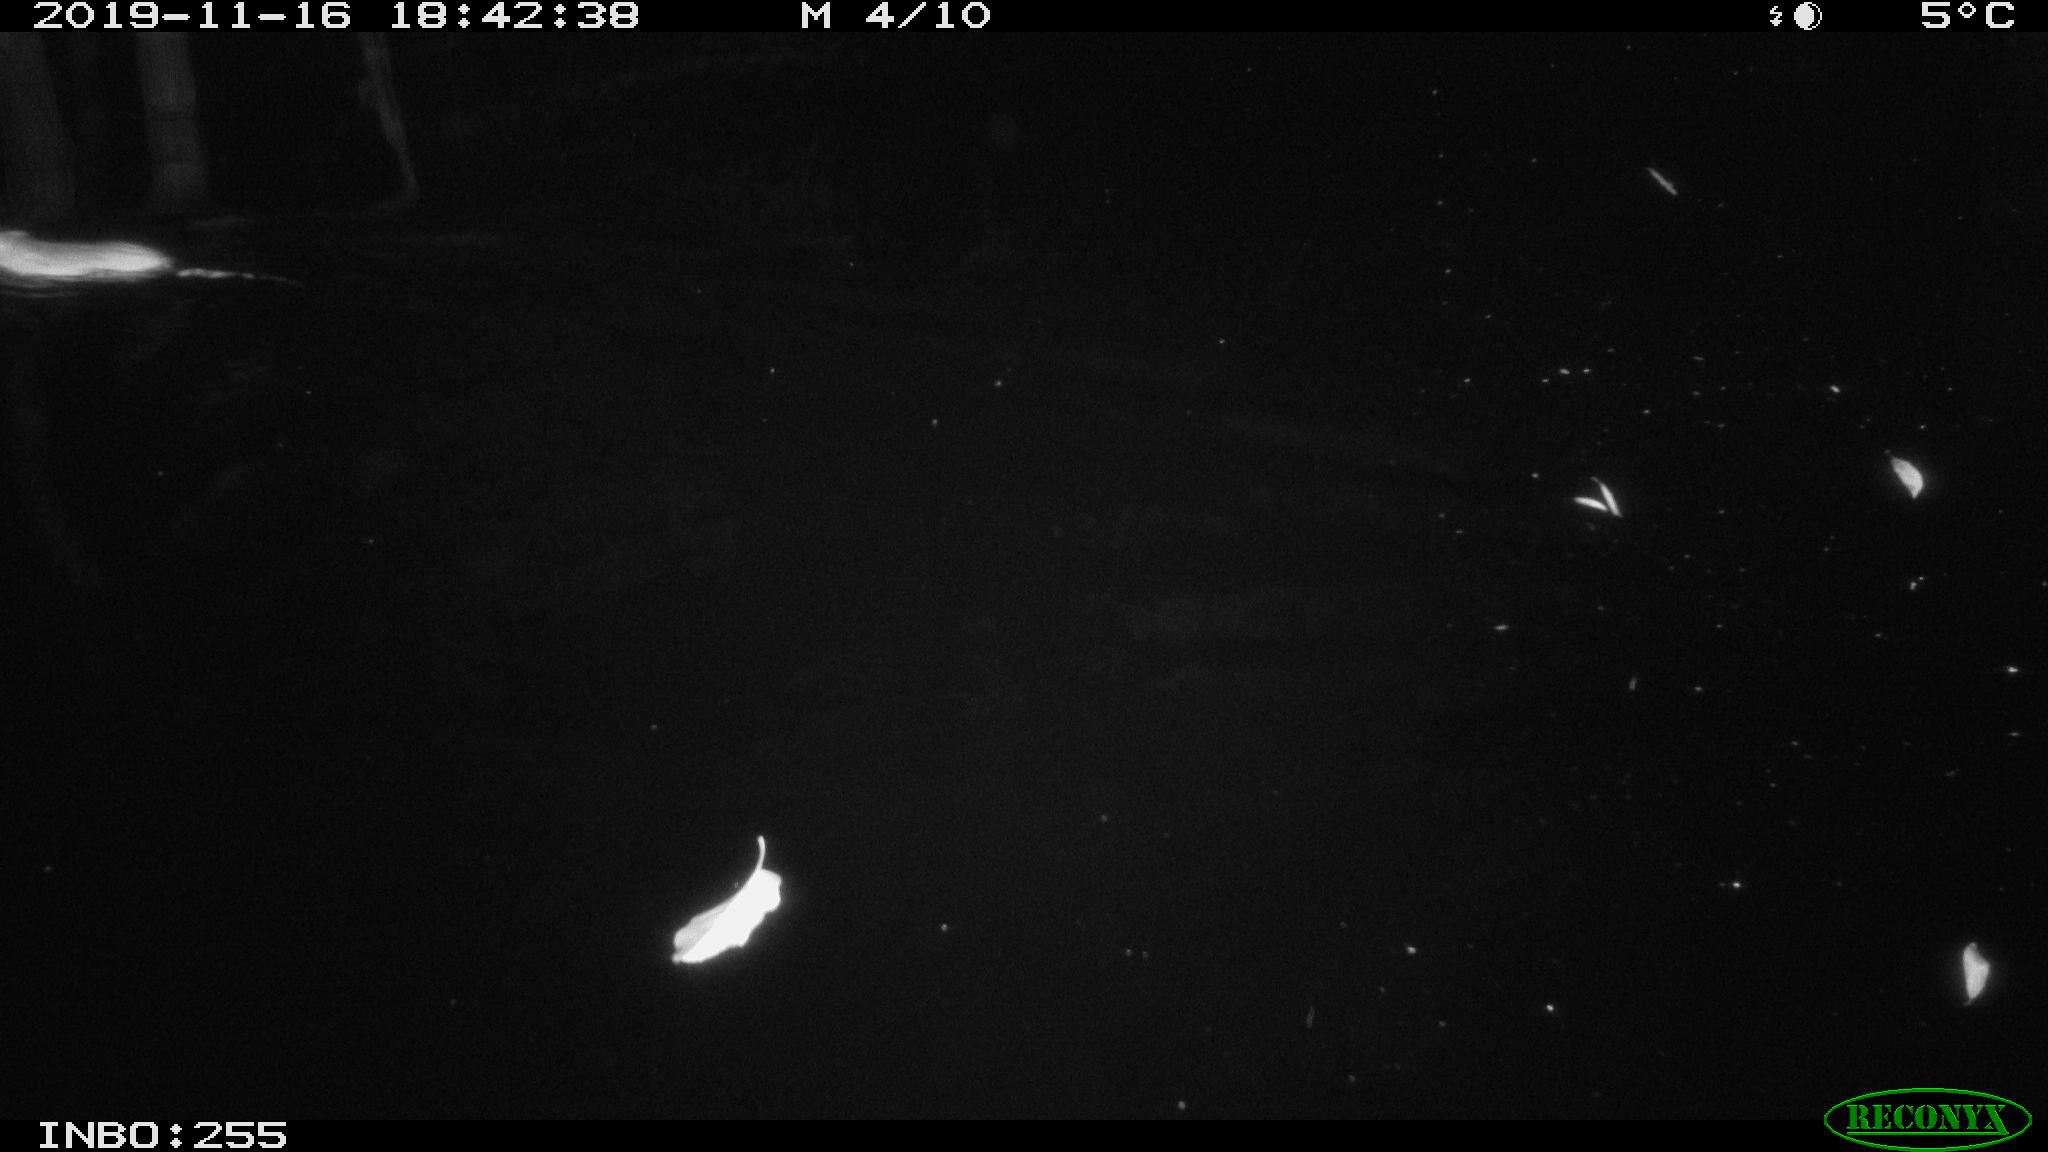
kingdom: Animalia
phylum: Chordata
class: Mammalia
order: Rodentia
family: Muridae
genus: Rattus
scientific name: Rattus norvegicus
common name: Brown rat
